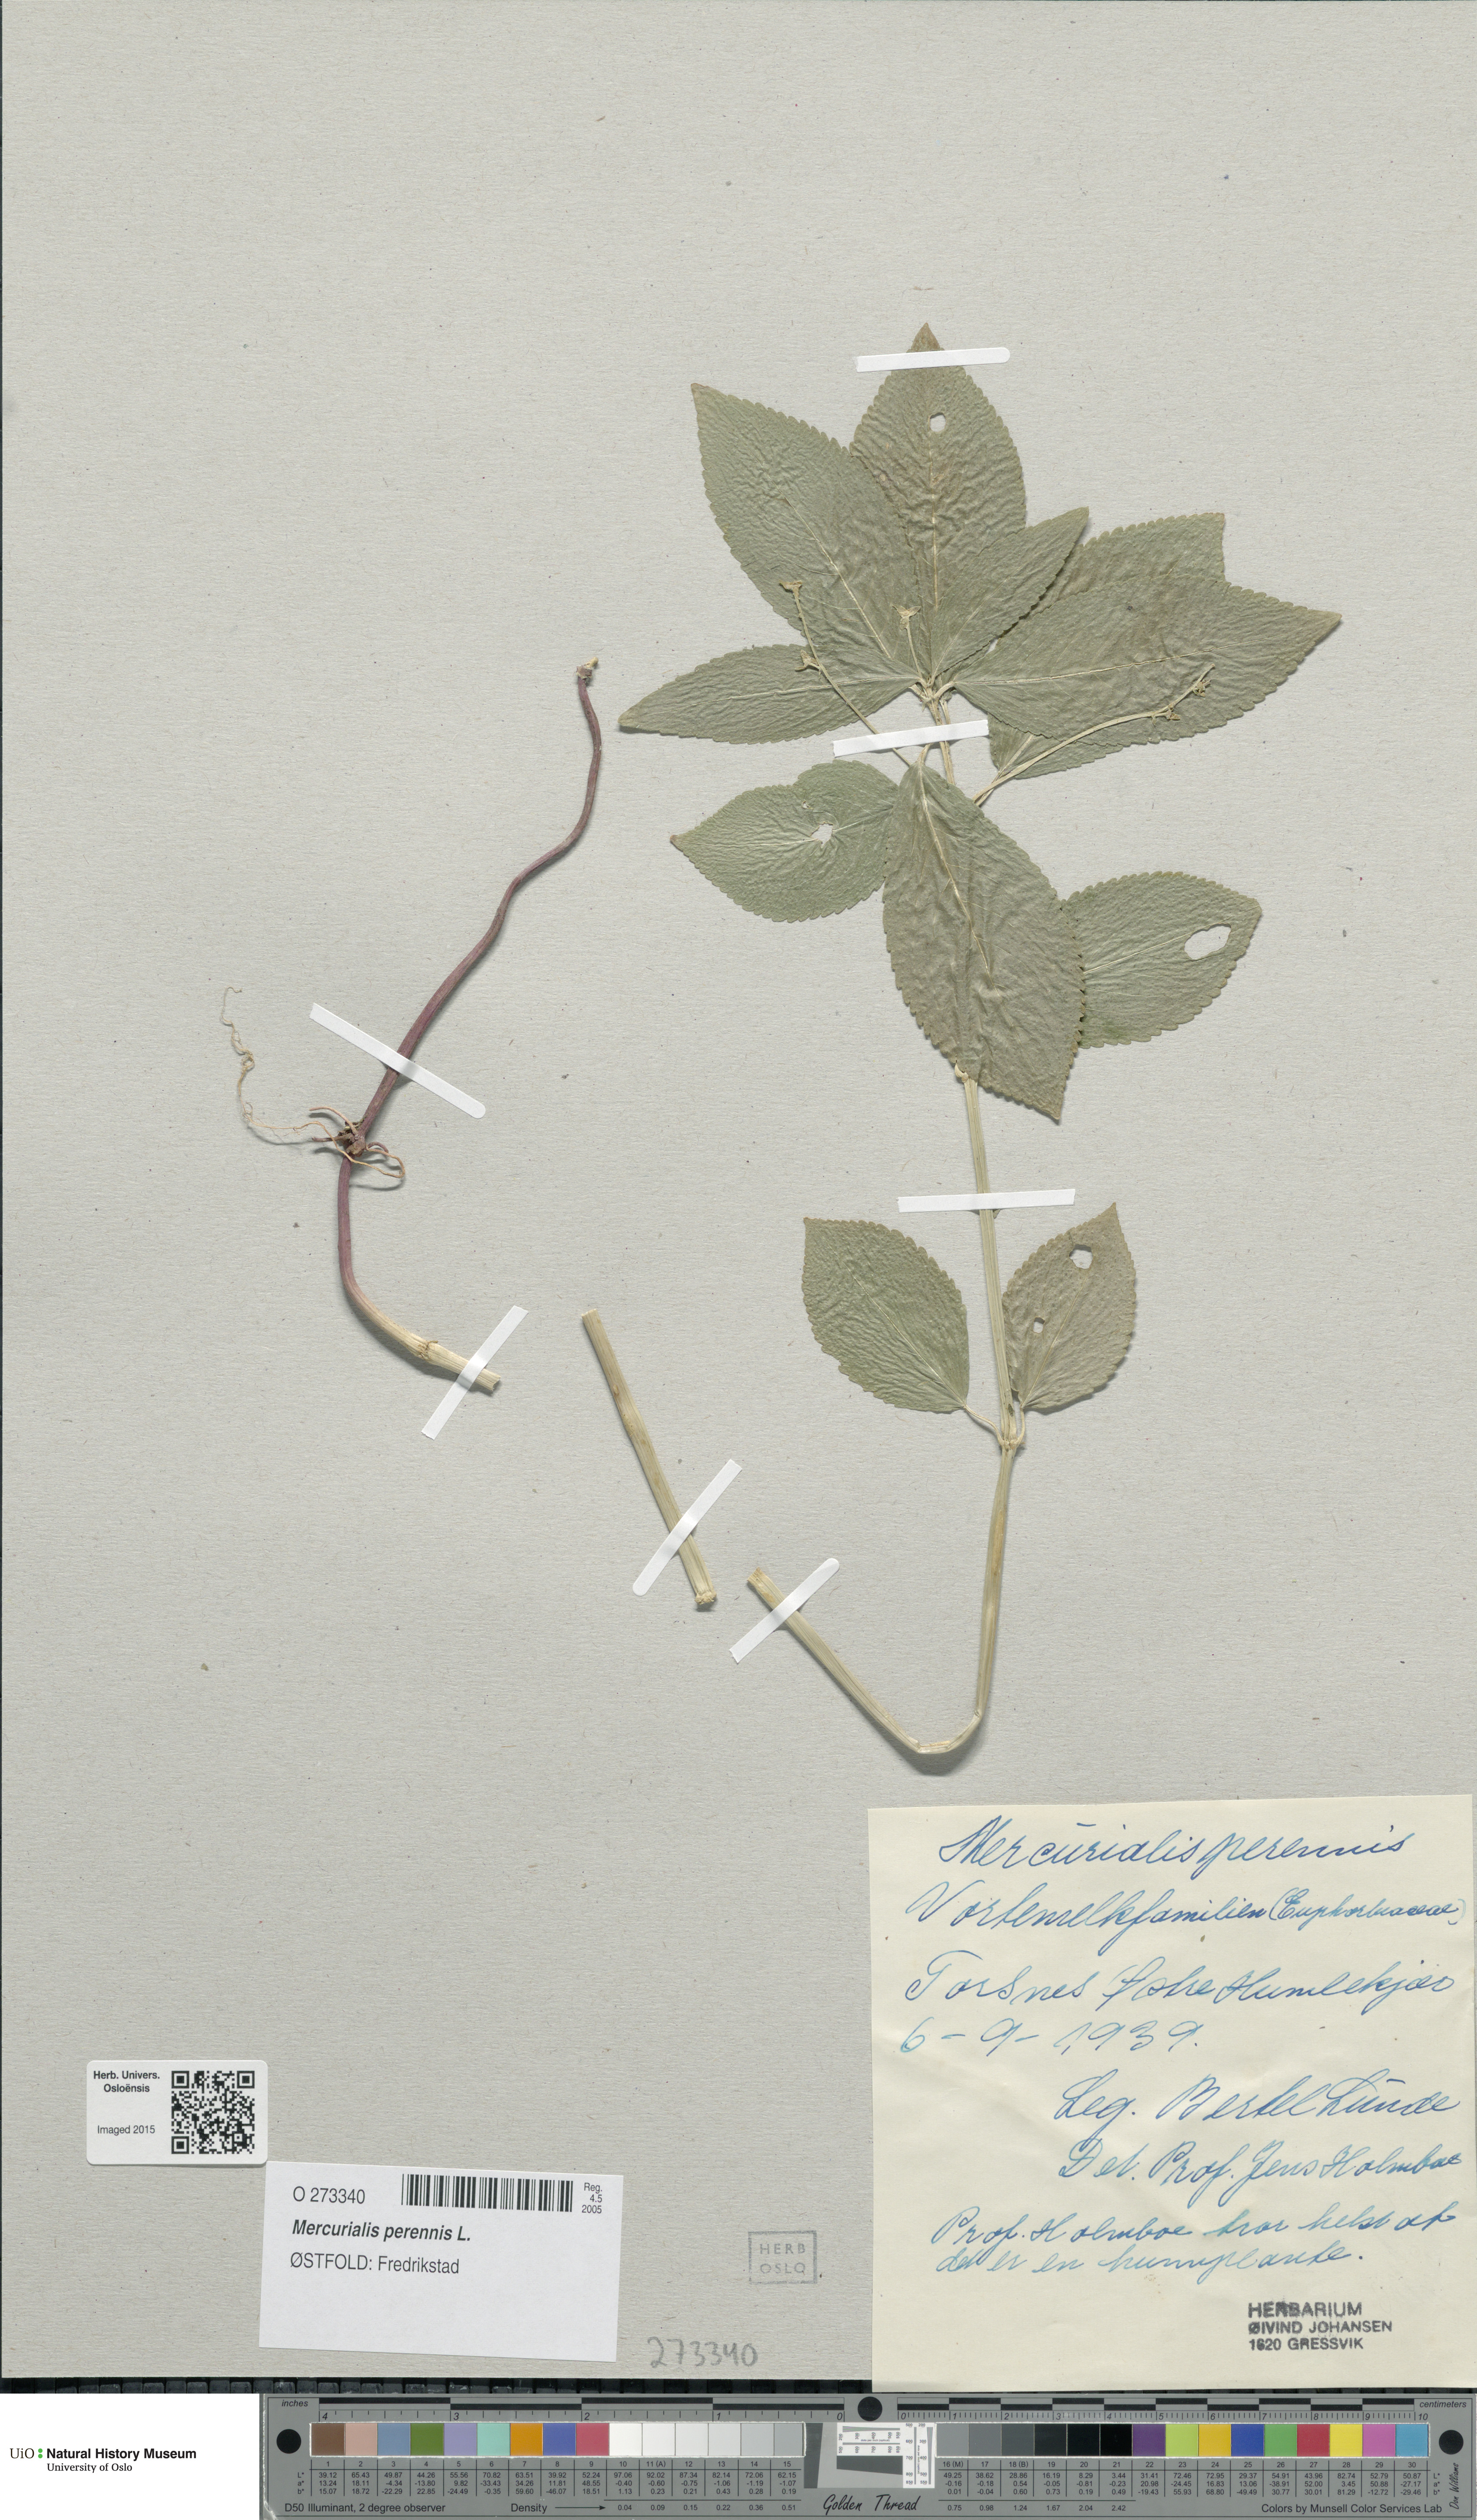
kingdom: Plantae
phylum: Tracheophyta
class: Magnoliopsida
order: Malpighiales
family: Euphorbiaceae
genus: Mercurialis
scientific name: Mercurialis perennis
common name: Dog mercury
